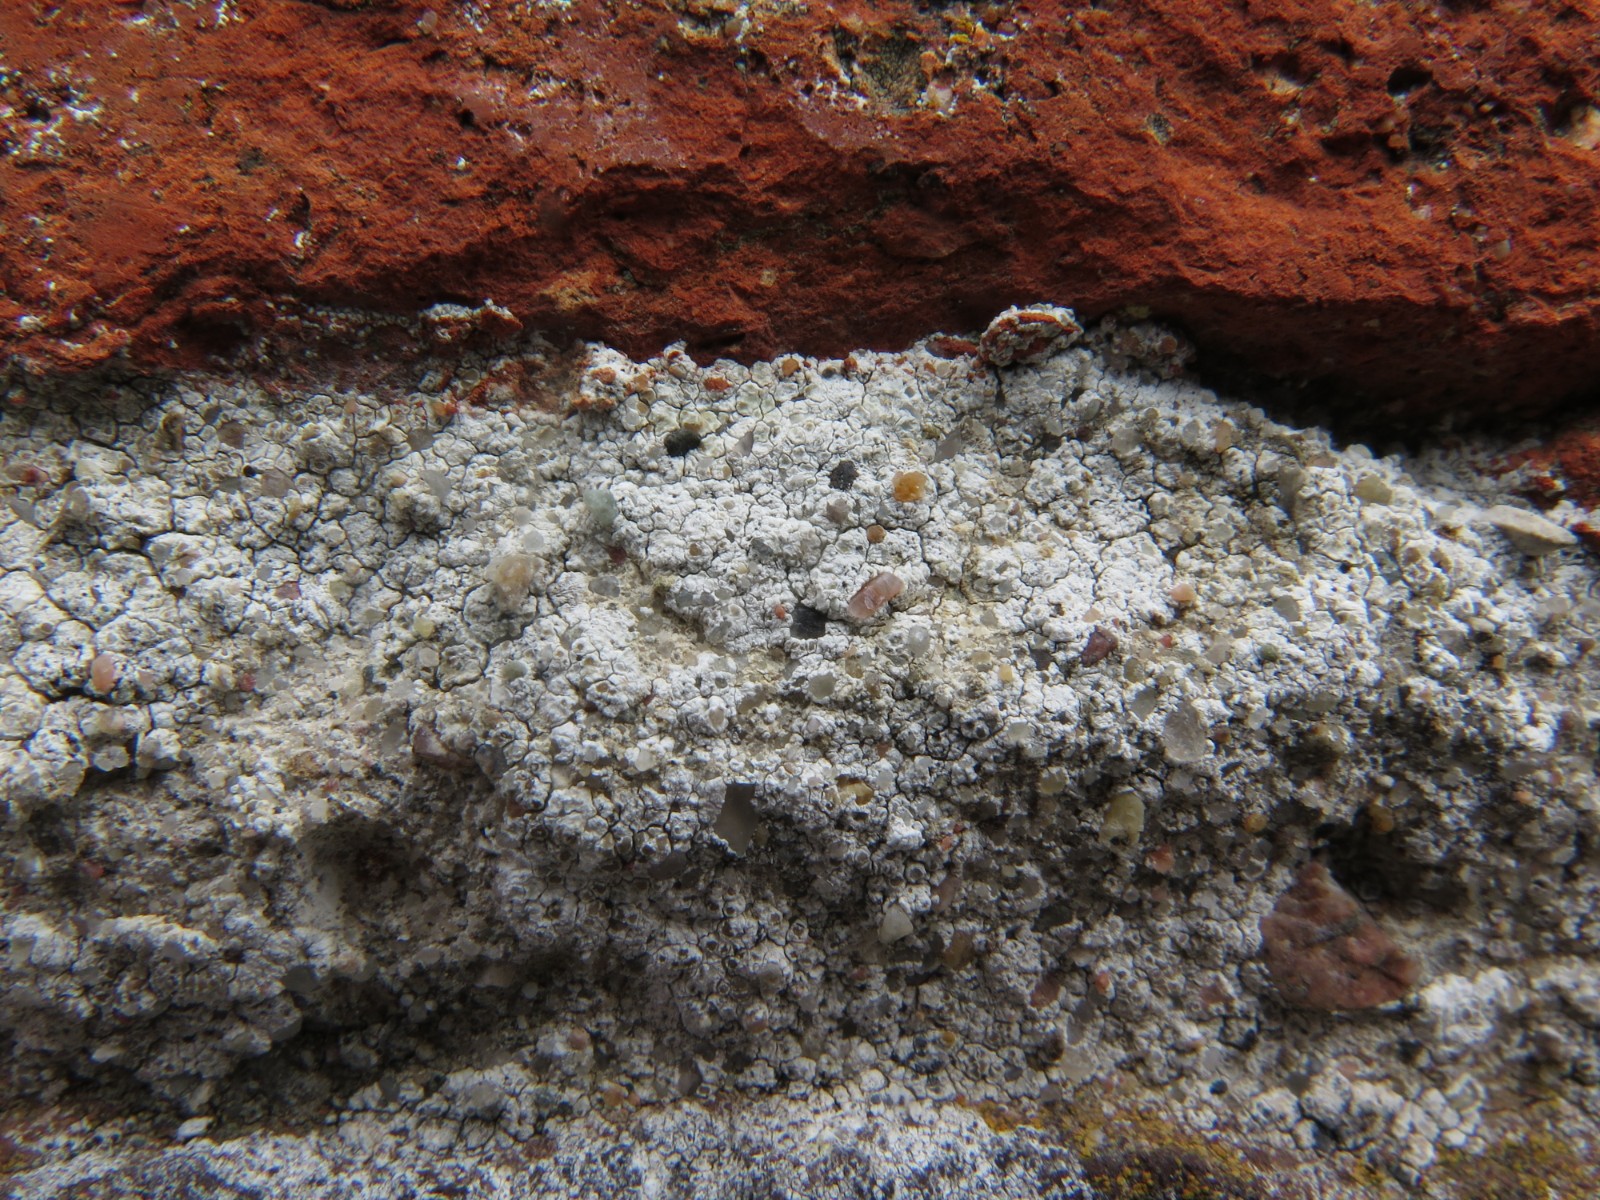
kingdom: Fungi
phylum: Ascomycota
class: Lecanoromycetes
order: Lecanorales
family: Lecanoraceae
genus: Polyozosia
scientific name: Polyozosia albescens
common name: cement-kantskivelav
